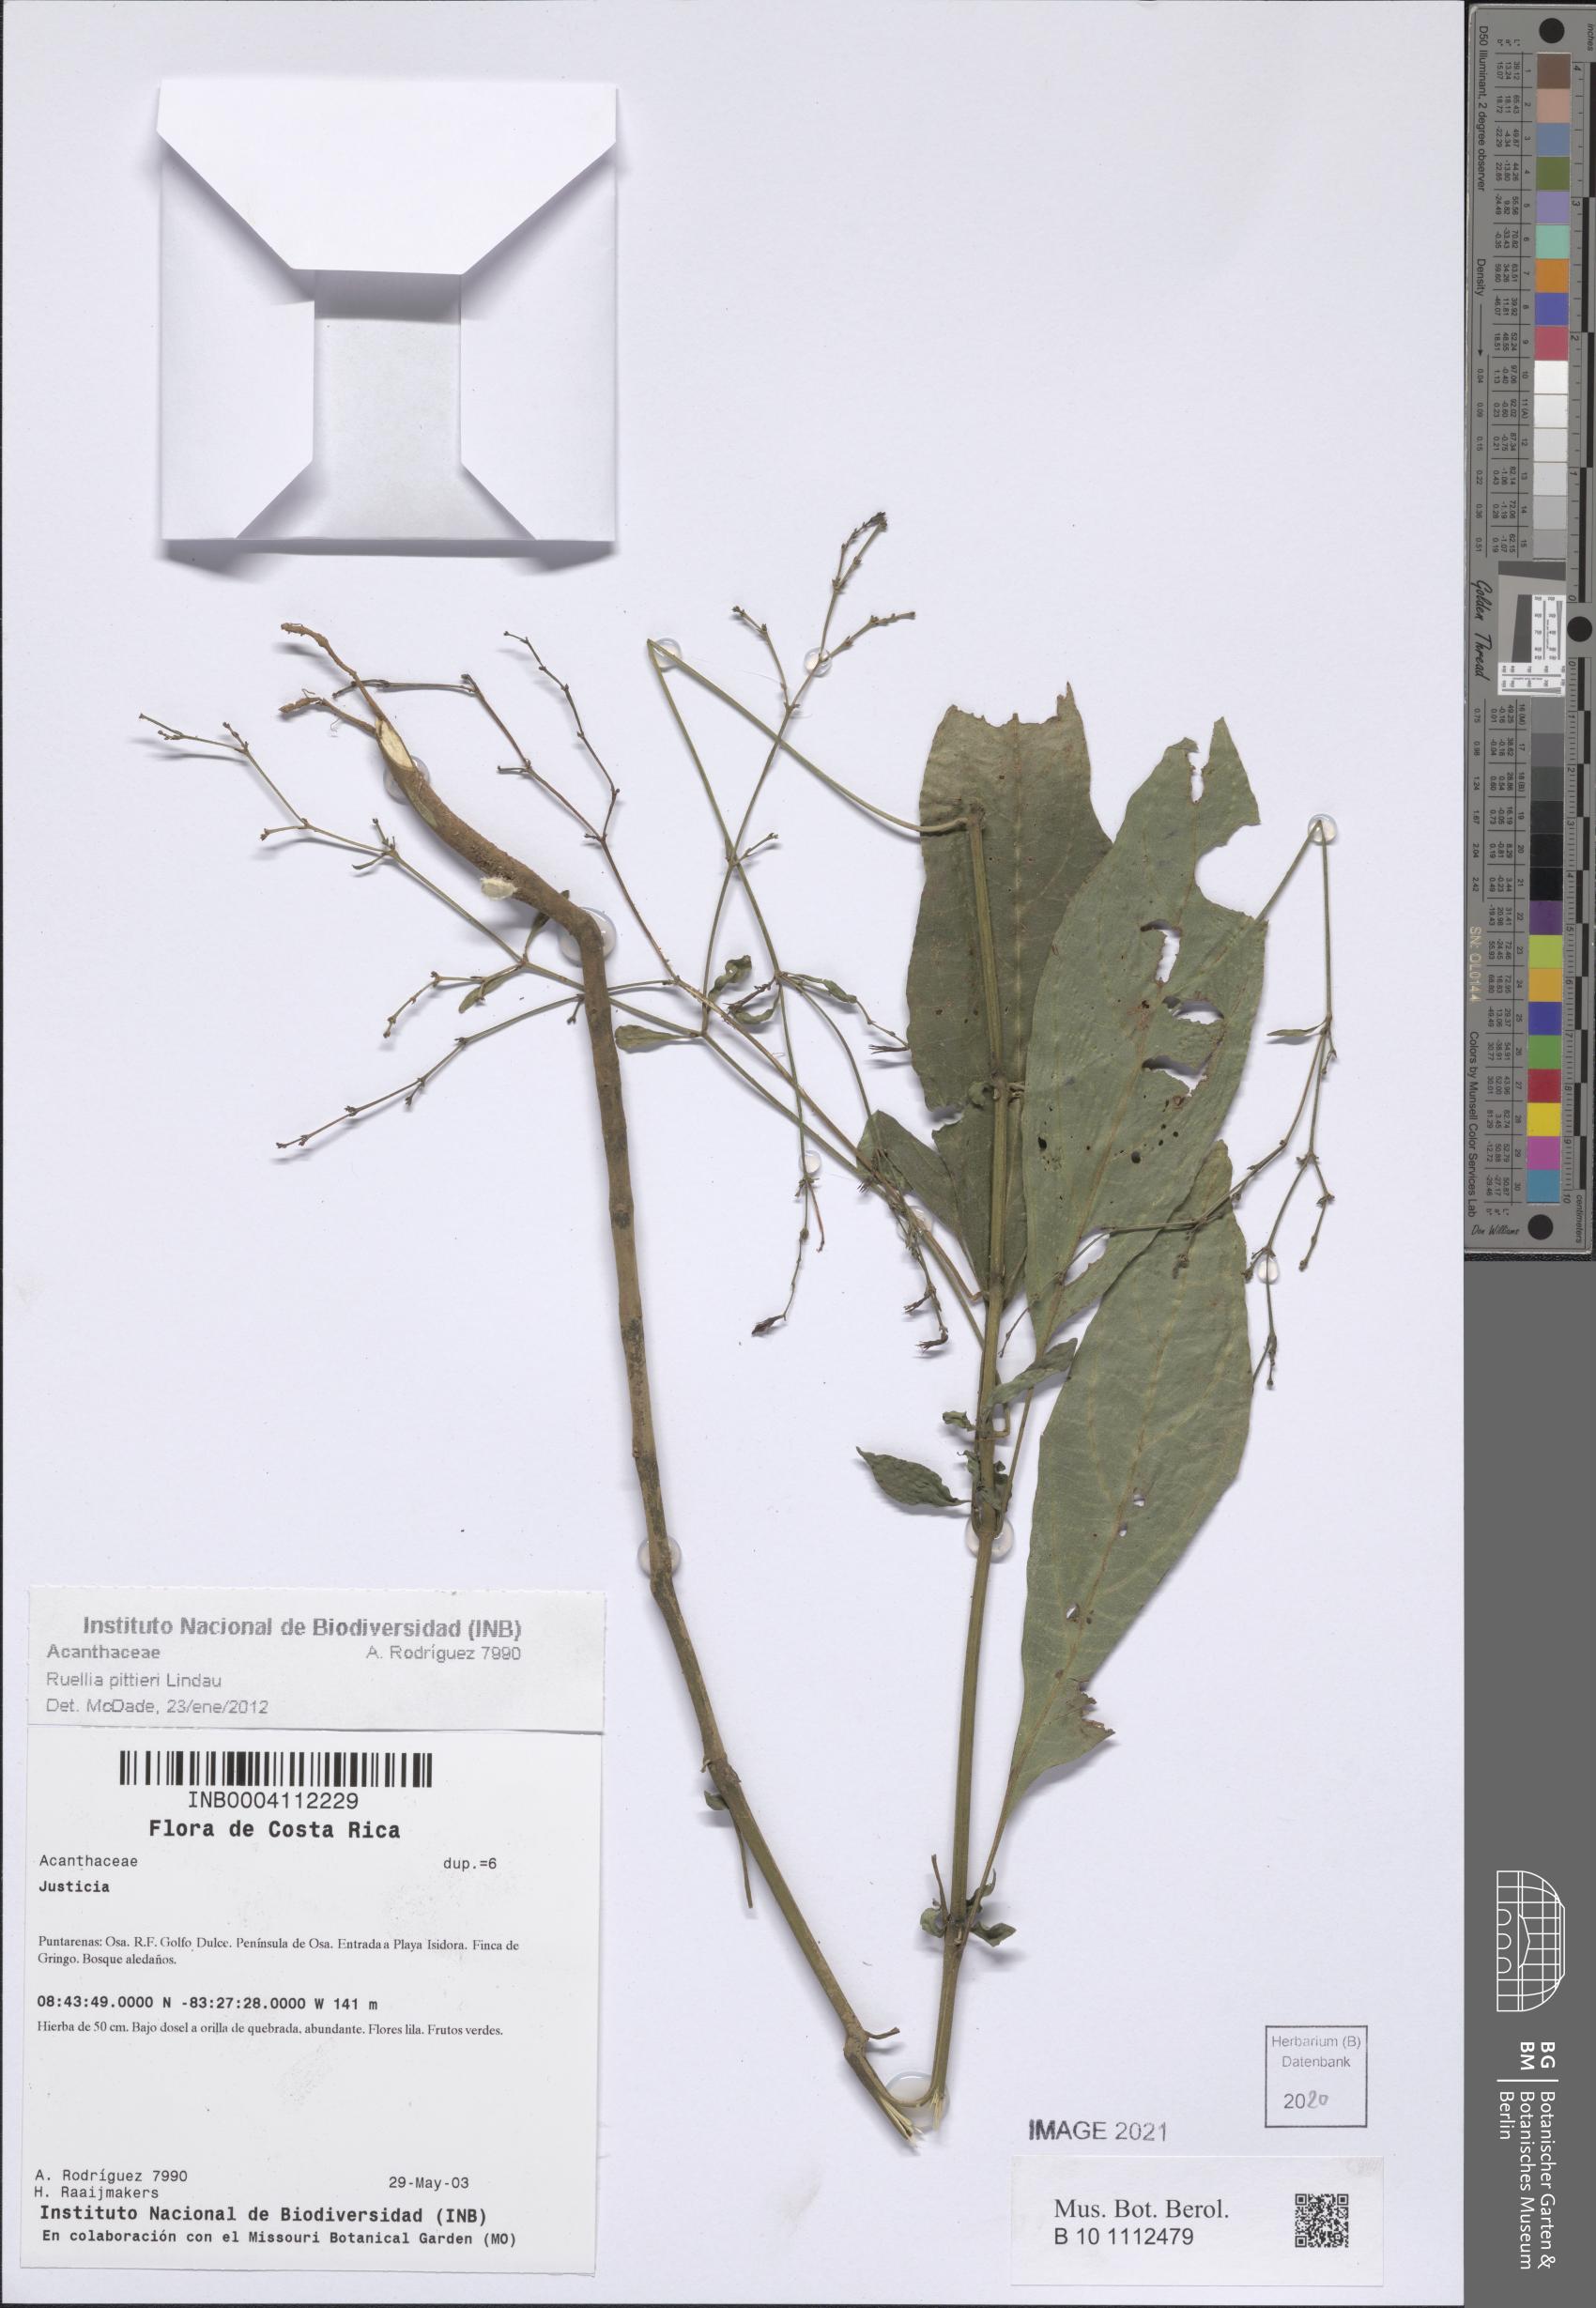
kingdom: Plantae
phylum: Tracheophyta
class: Magnoliopsida
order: Lamiales
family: Acanthaceae
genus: Ruellia
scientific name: Ruellia pittieri
